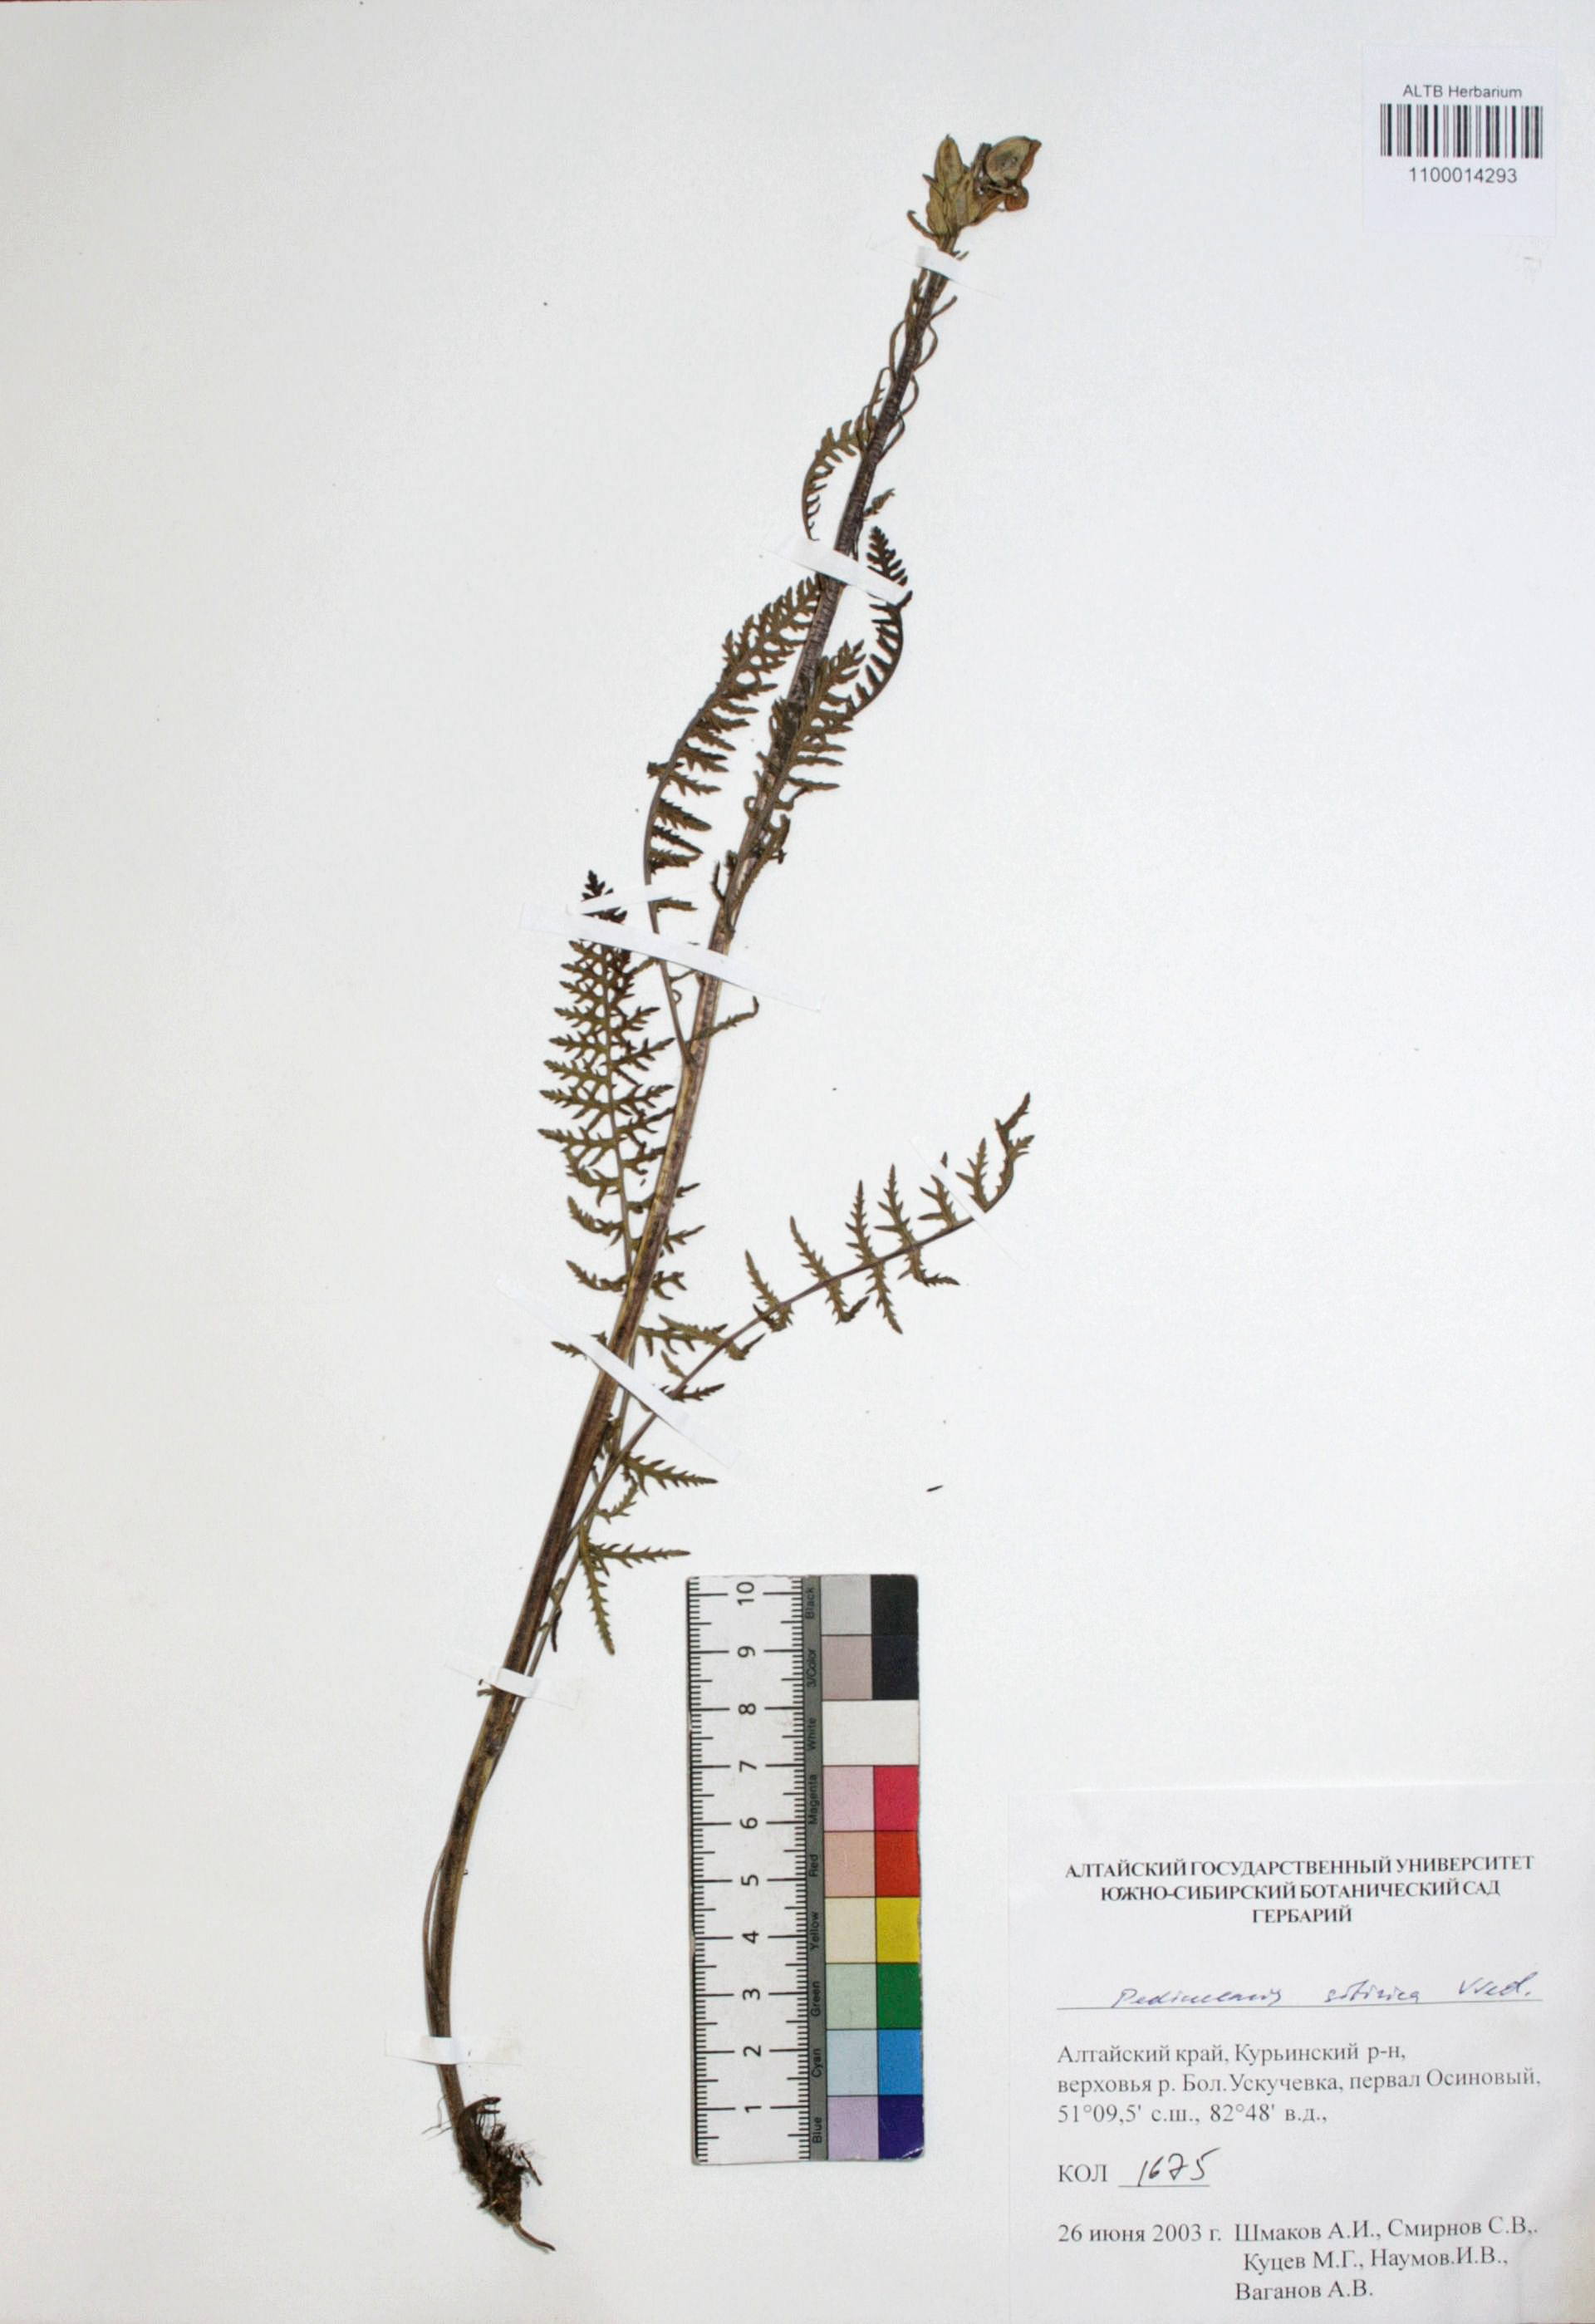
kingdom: Plantae
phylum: Tracheophyta
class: Magnoliopsida
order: Lamiales
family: Orobanchaceae
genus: Pedicularis
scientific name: Pedicularis achilleifolia
